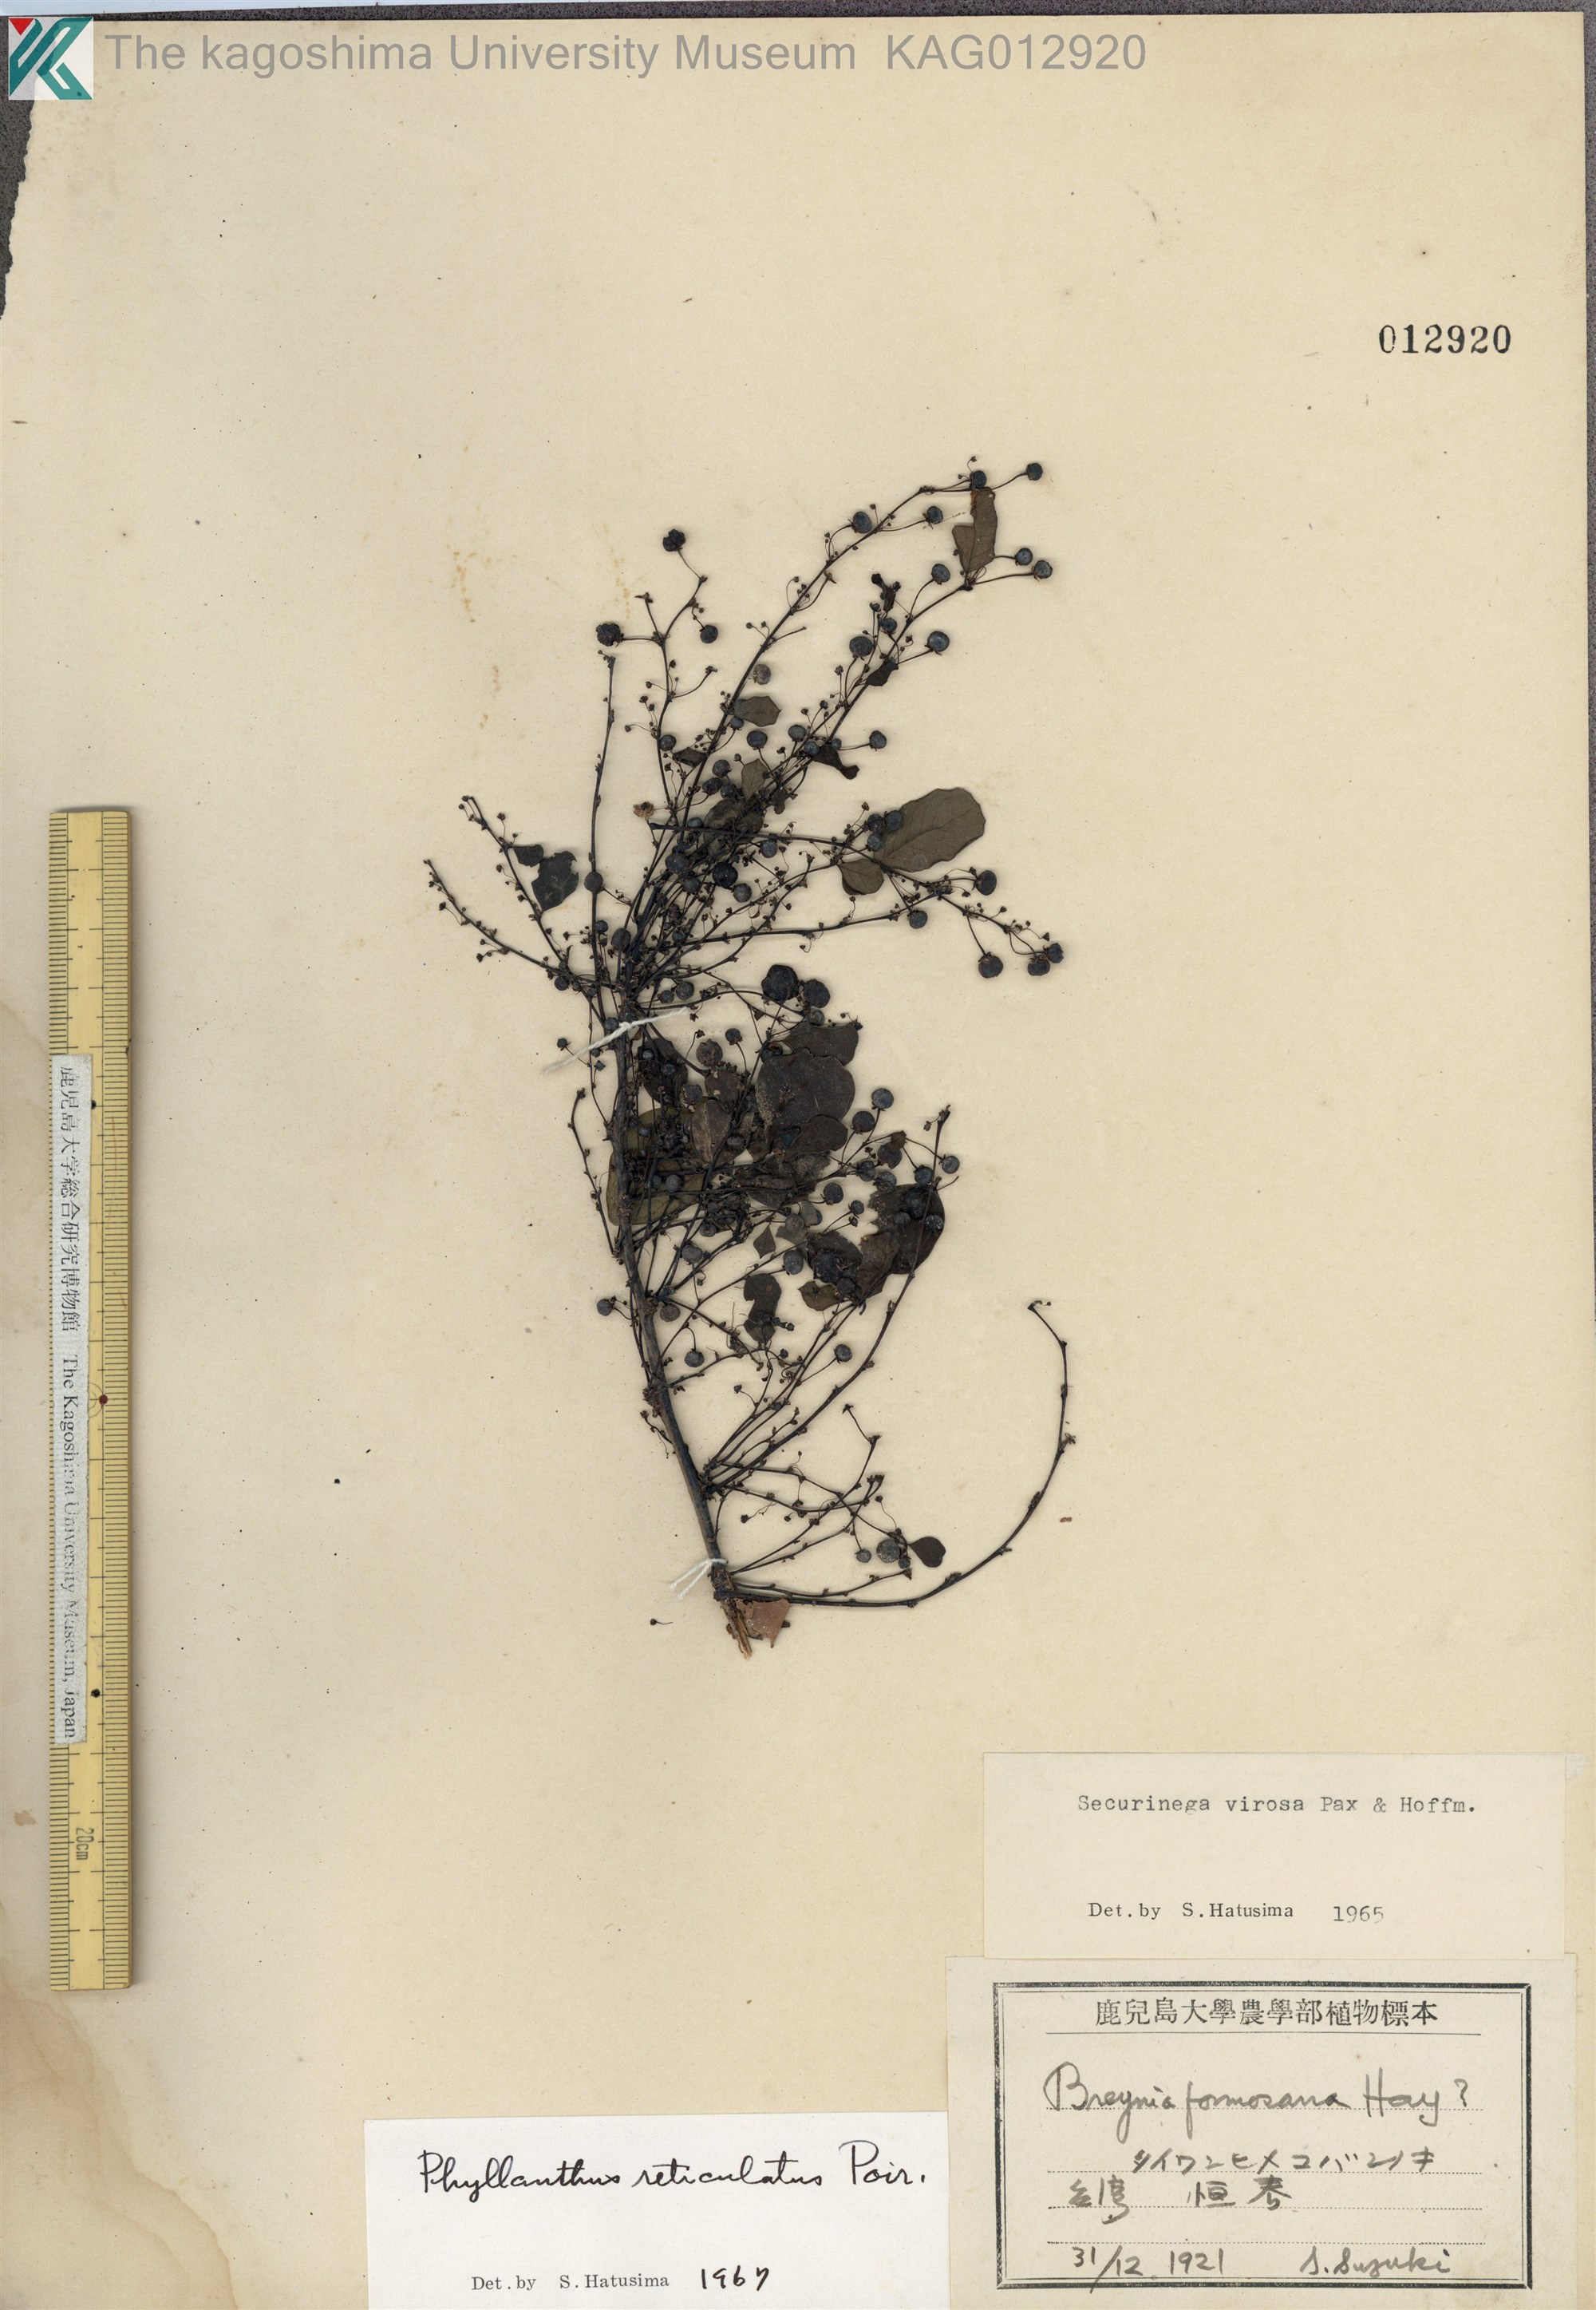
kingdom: Plantae
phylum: Tracheophyta
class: Magnoliopsida
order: Malpighiales
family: Phyllanthaceae
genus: Phyllanthus
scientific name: Phyllanthus reticulatus
